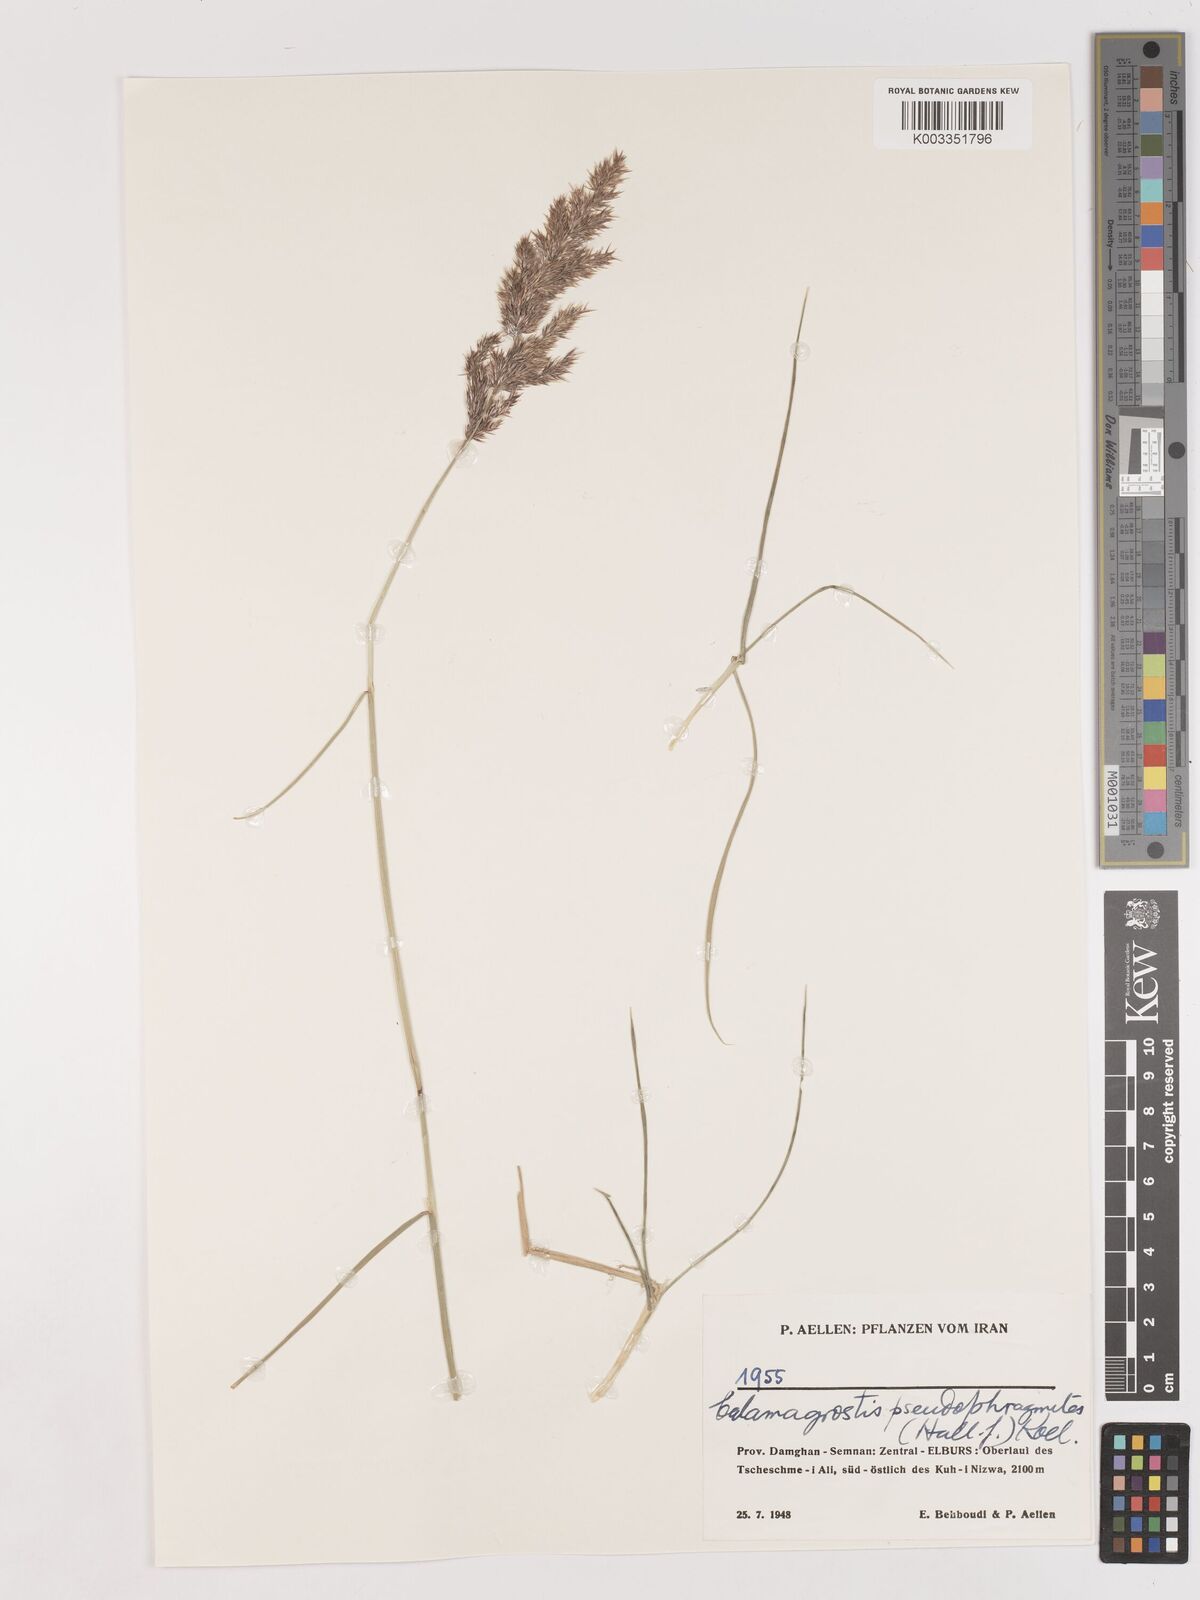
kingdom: Plantae
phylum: Tracheophyta
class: Liliopsida
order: Poales
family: Poaceae
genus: Calamagrostis
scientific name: Calamagrostis pseudophragmites
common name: Coastal small-reed
